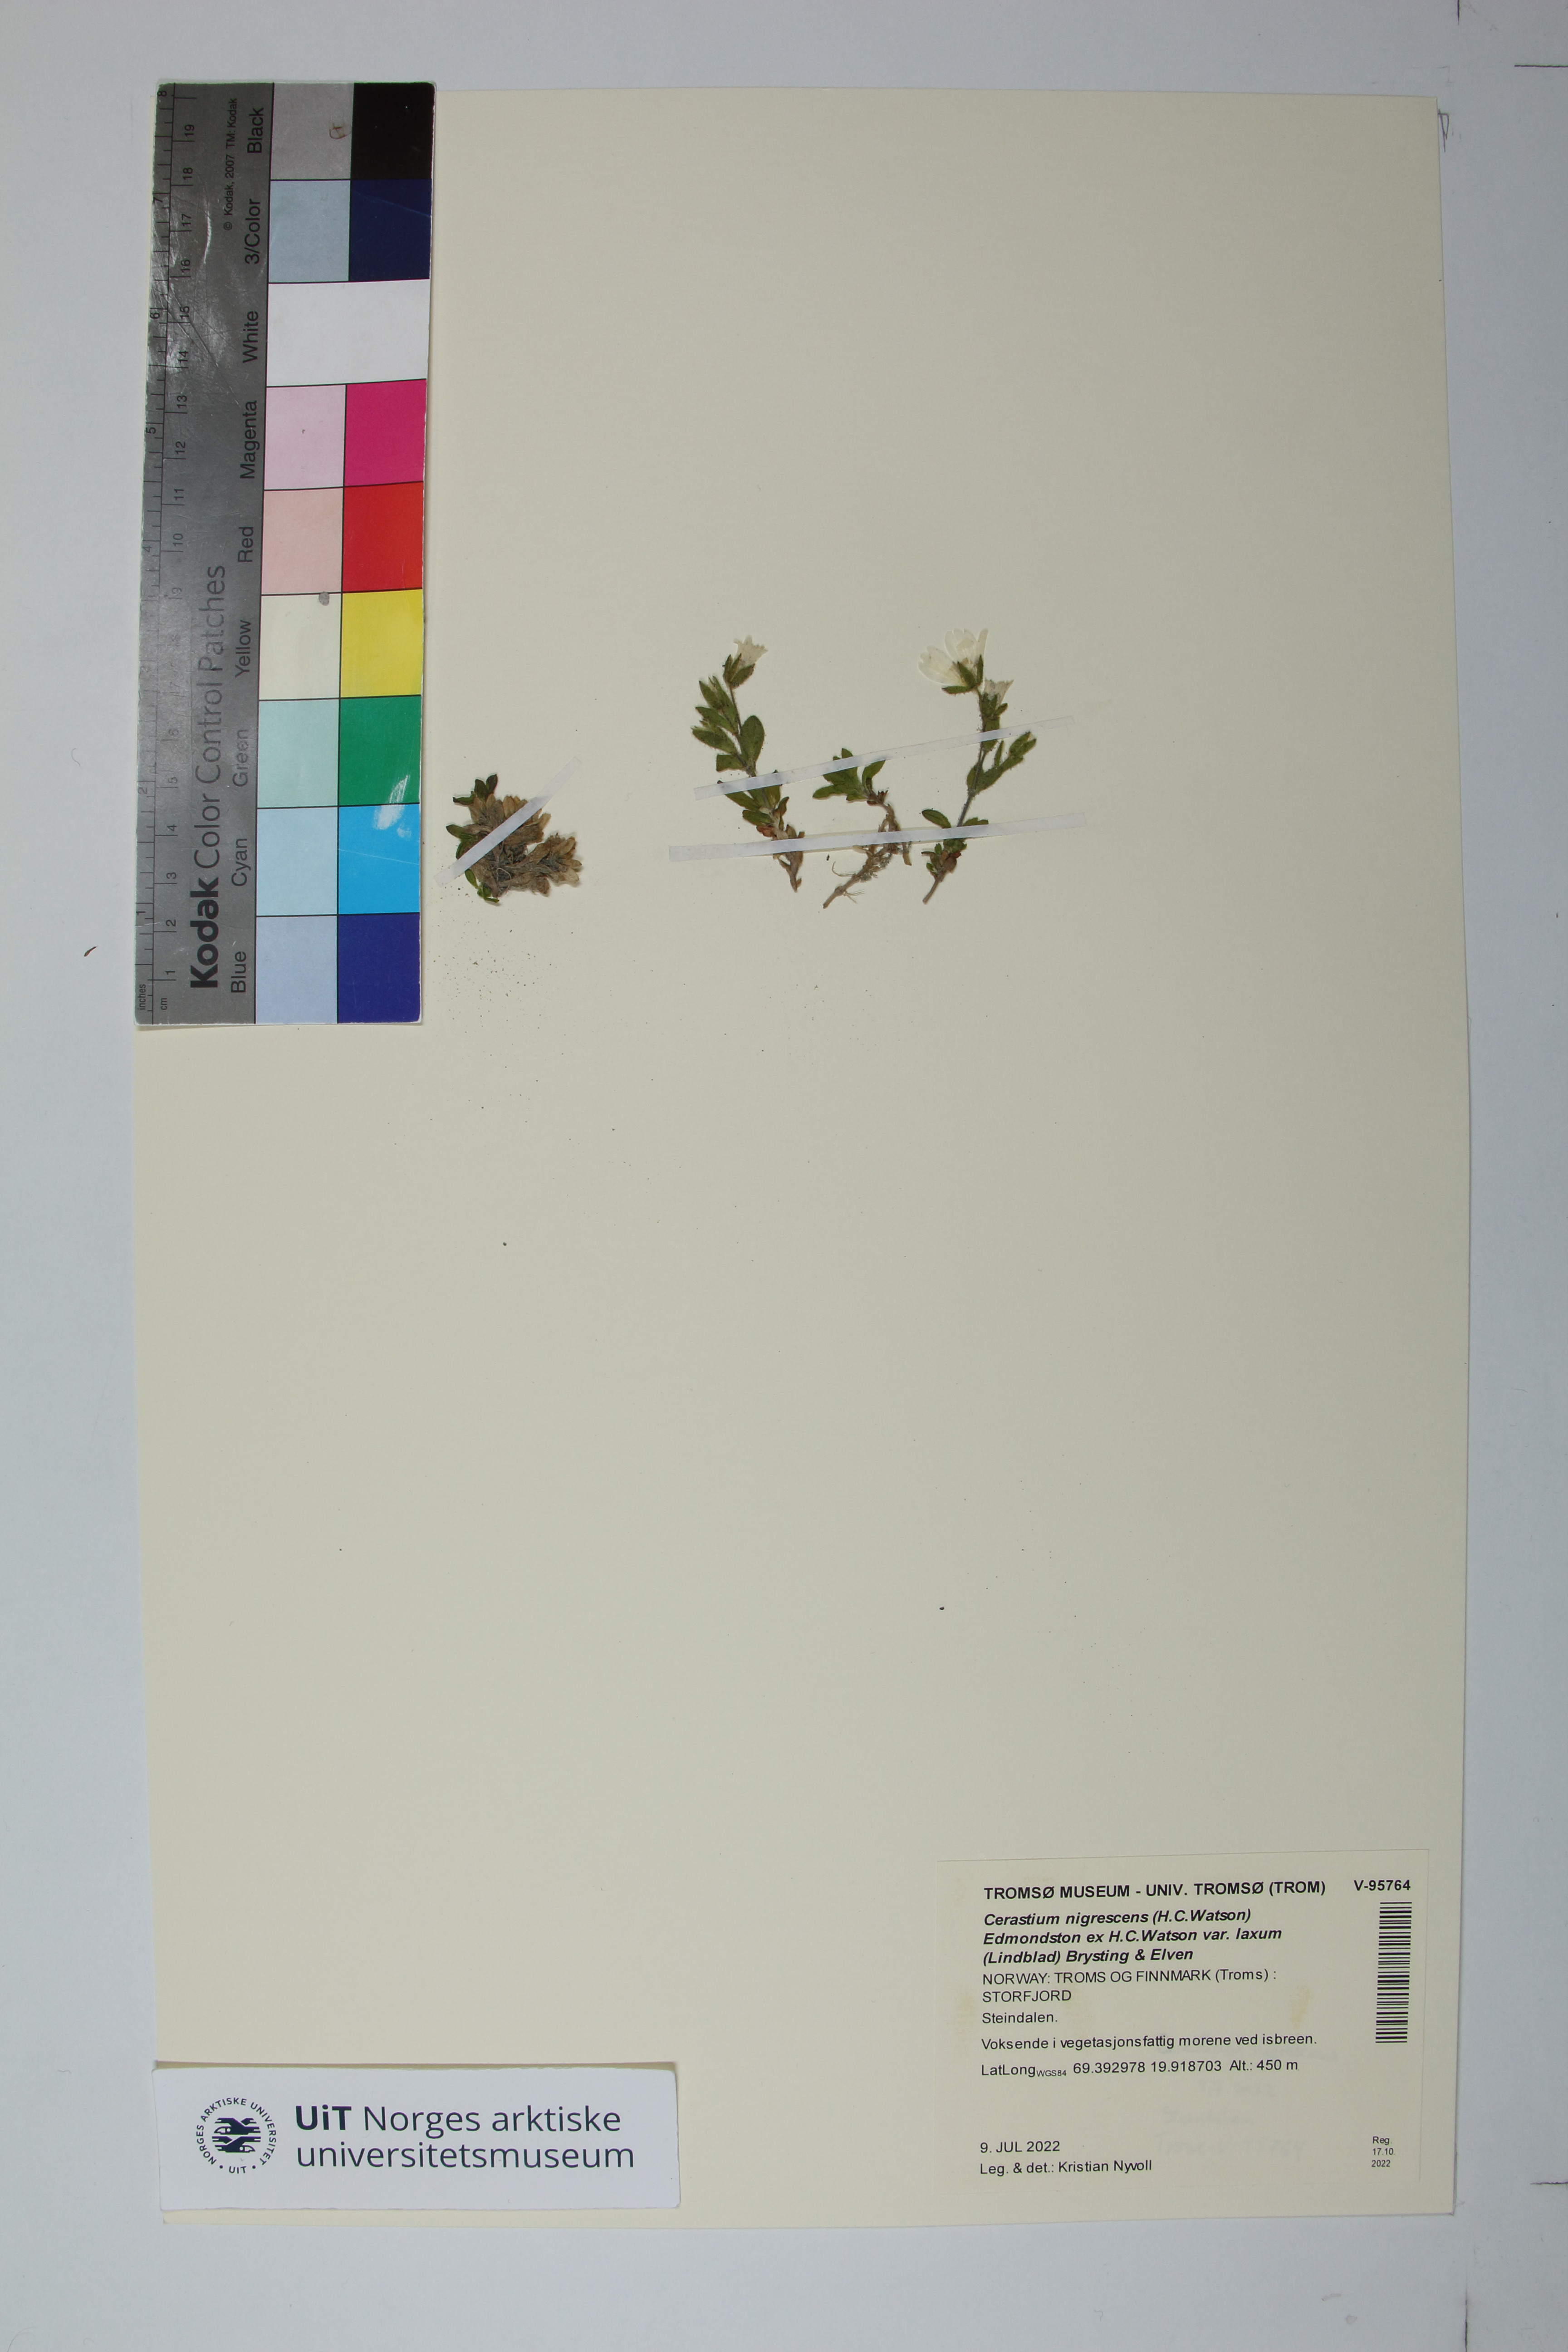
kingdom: Plantae
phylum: Tracheophyta
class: Magnoliopsida
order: Caryophyllales
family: Caryophyllaceae
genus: Cerastium
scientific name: Cerastium nigrescens
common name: Shetland mouse-ear
